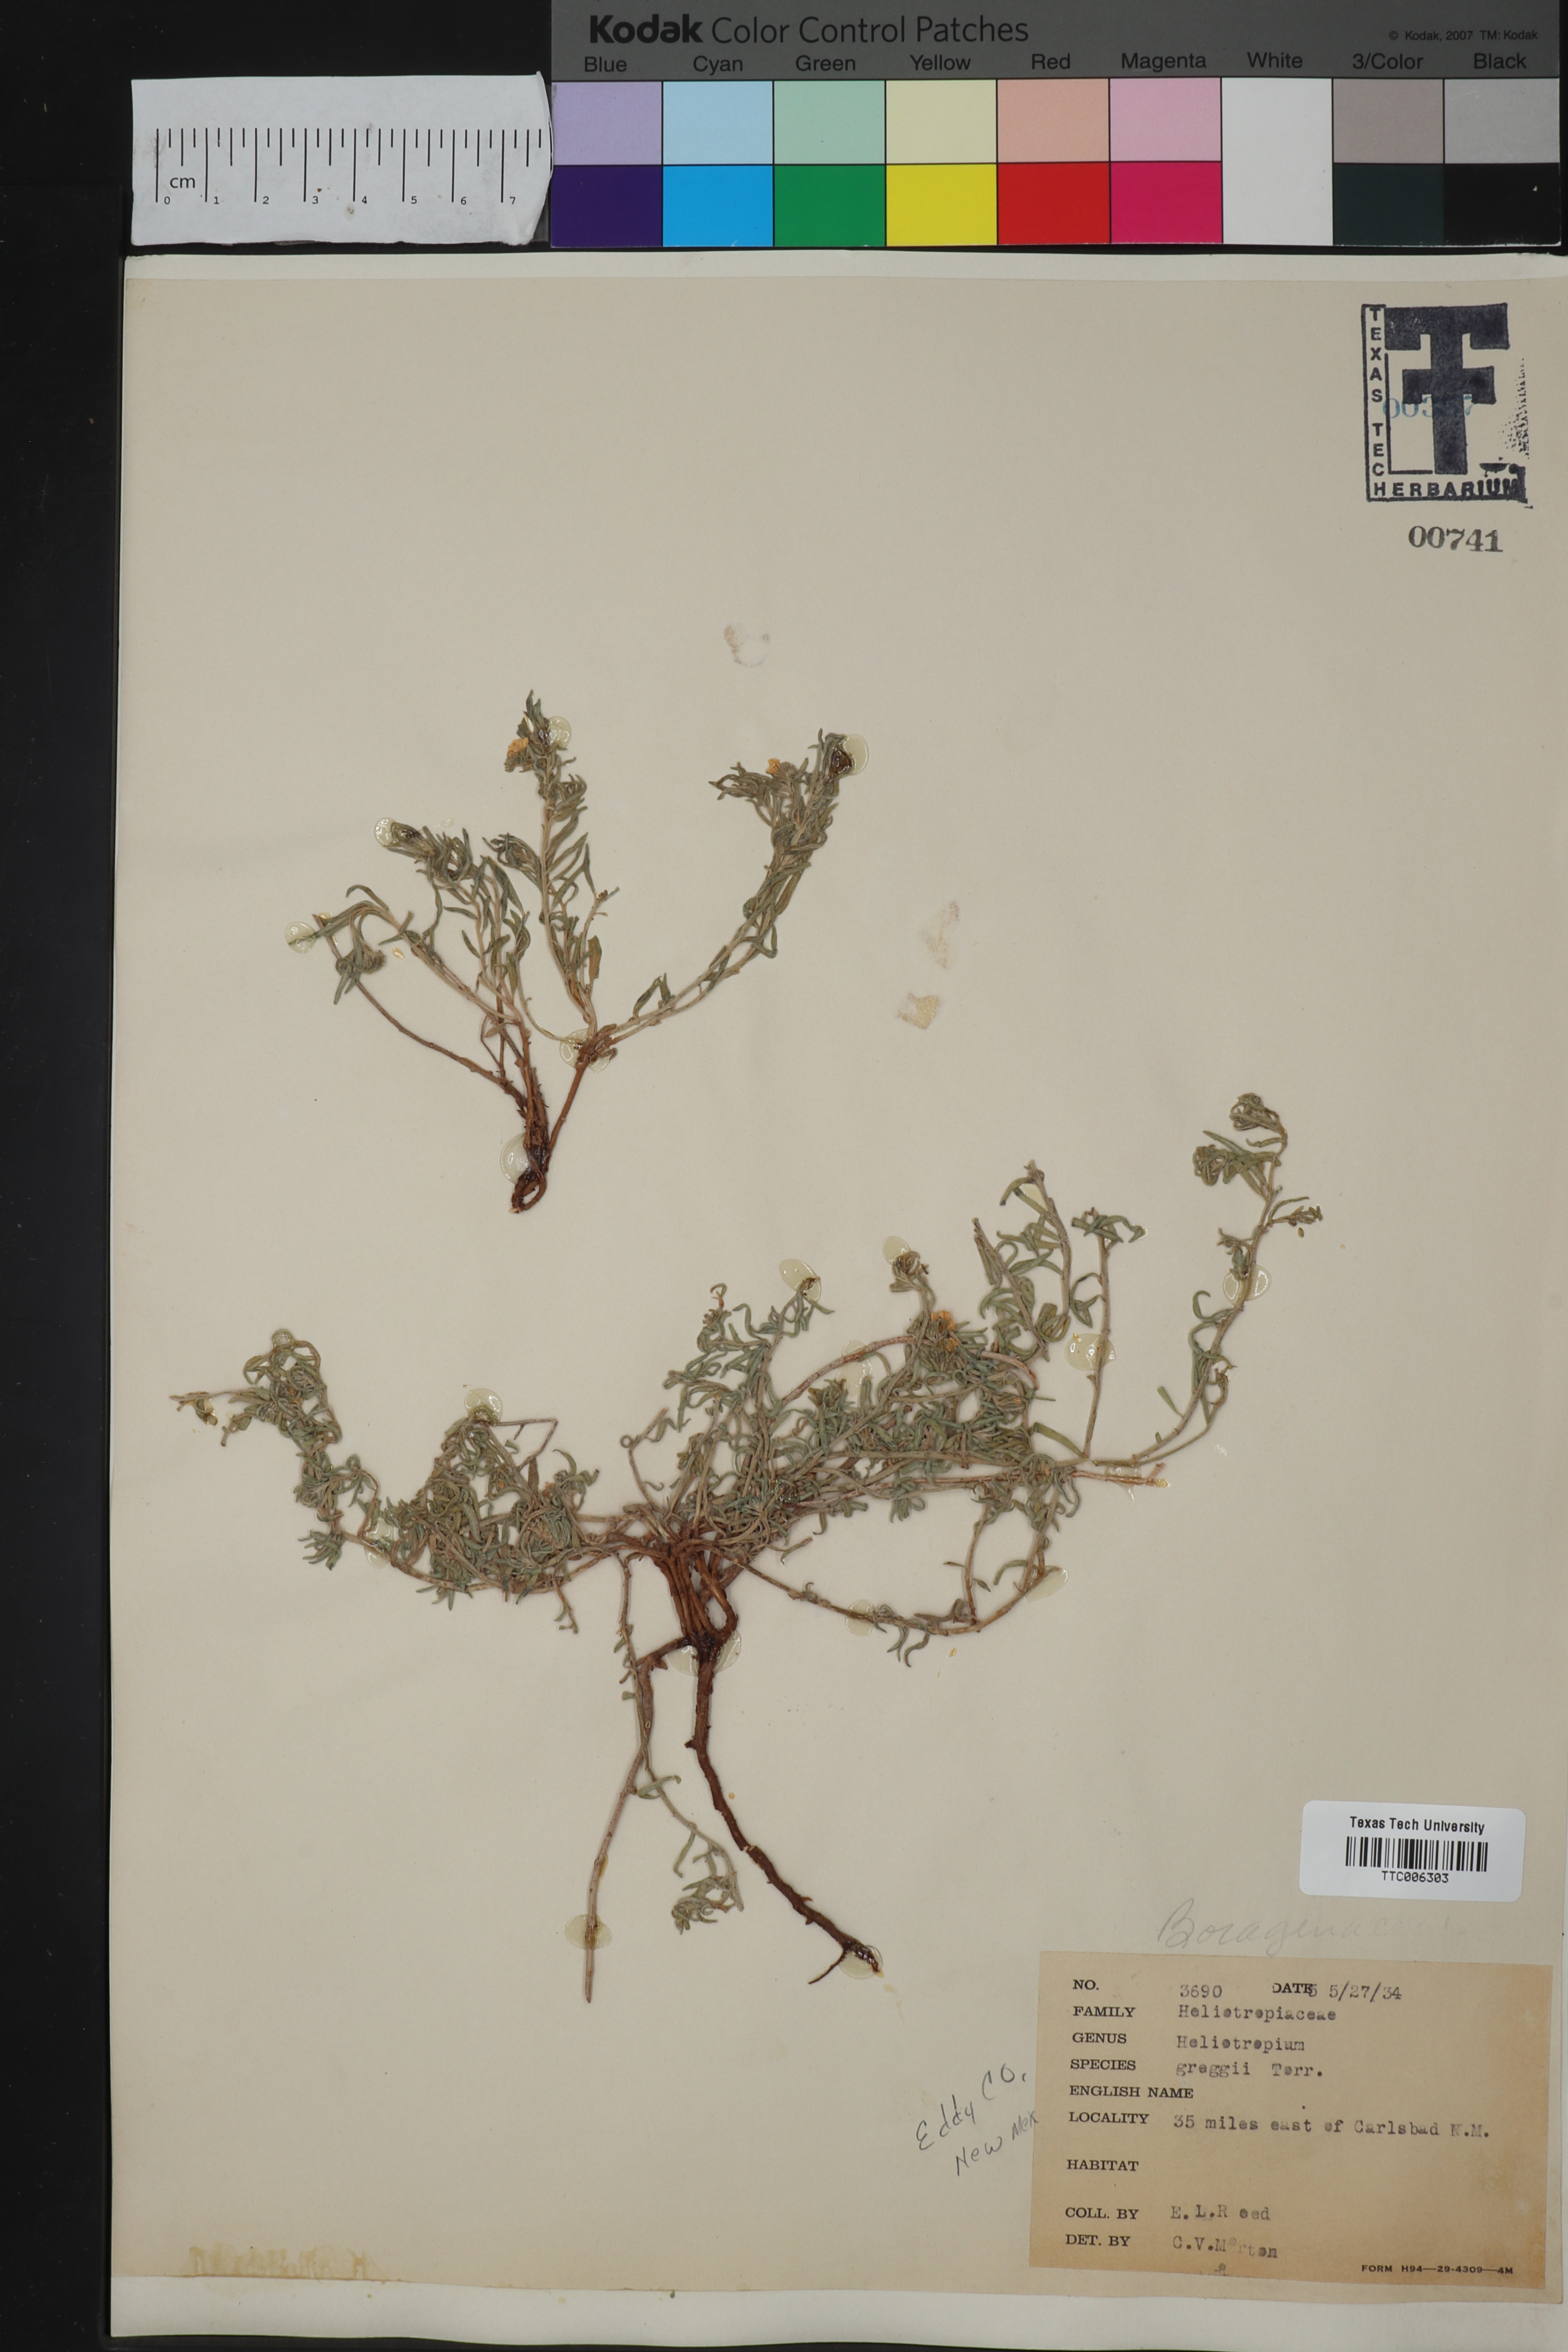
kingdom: Plantae
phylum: Tracheophyta
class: Magnoliopsida
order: Boraginales
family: Heliotropiaceae
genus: Euploca
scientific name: Euploca greggii
